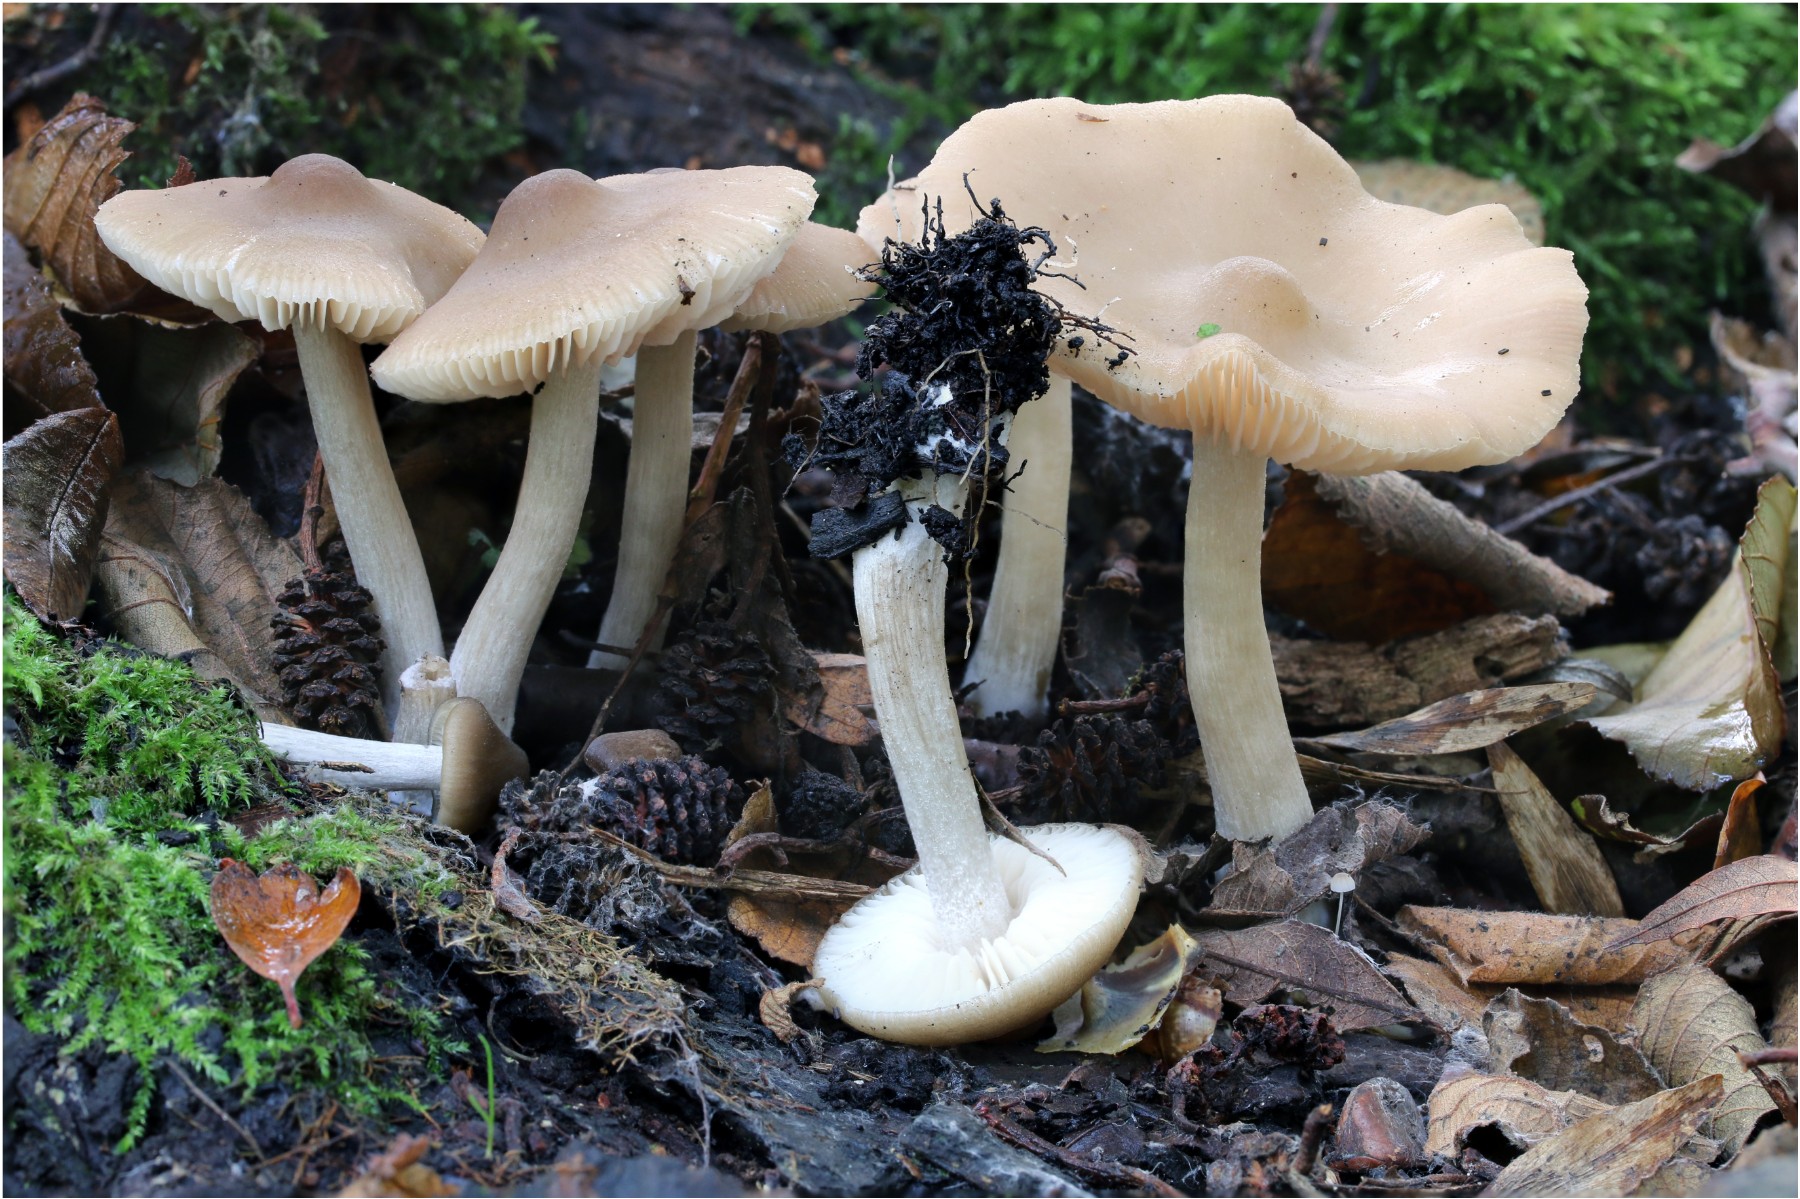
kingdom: Fungi
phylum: Basidiomycota
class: Agaricomycetes
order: Agaricales
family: Entolomataceae
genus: Entoloma
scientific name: Entoloma
